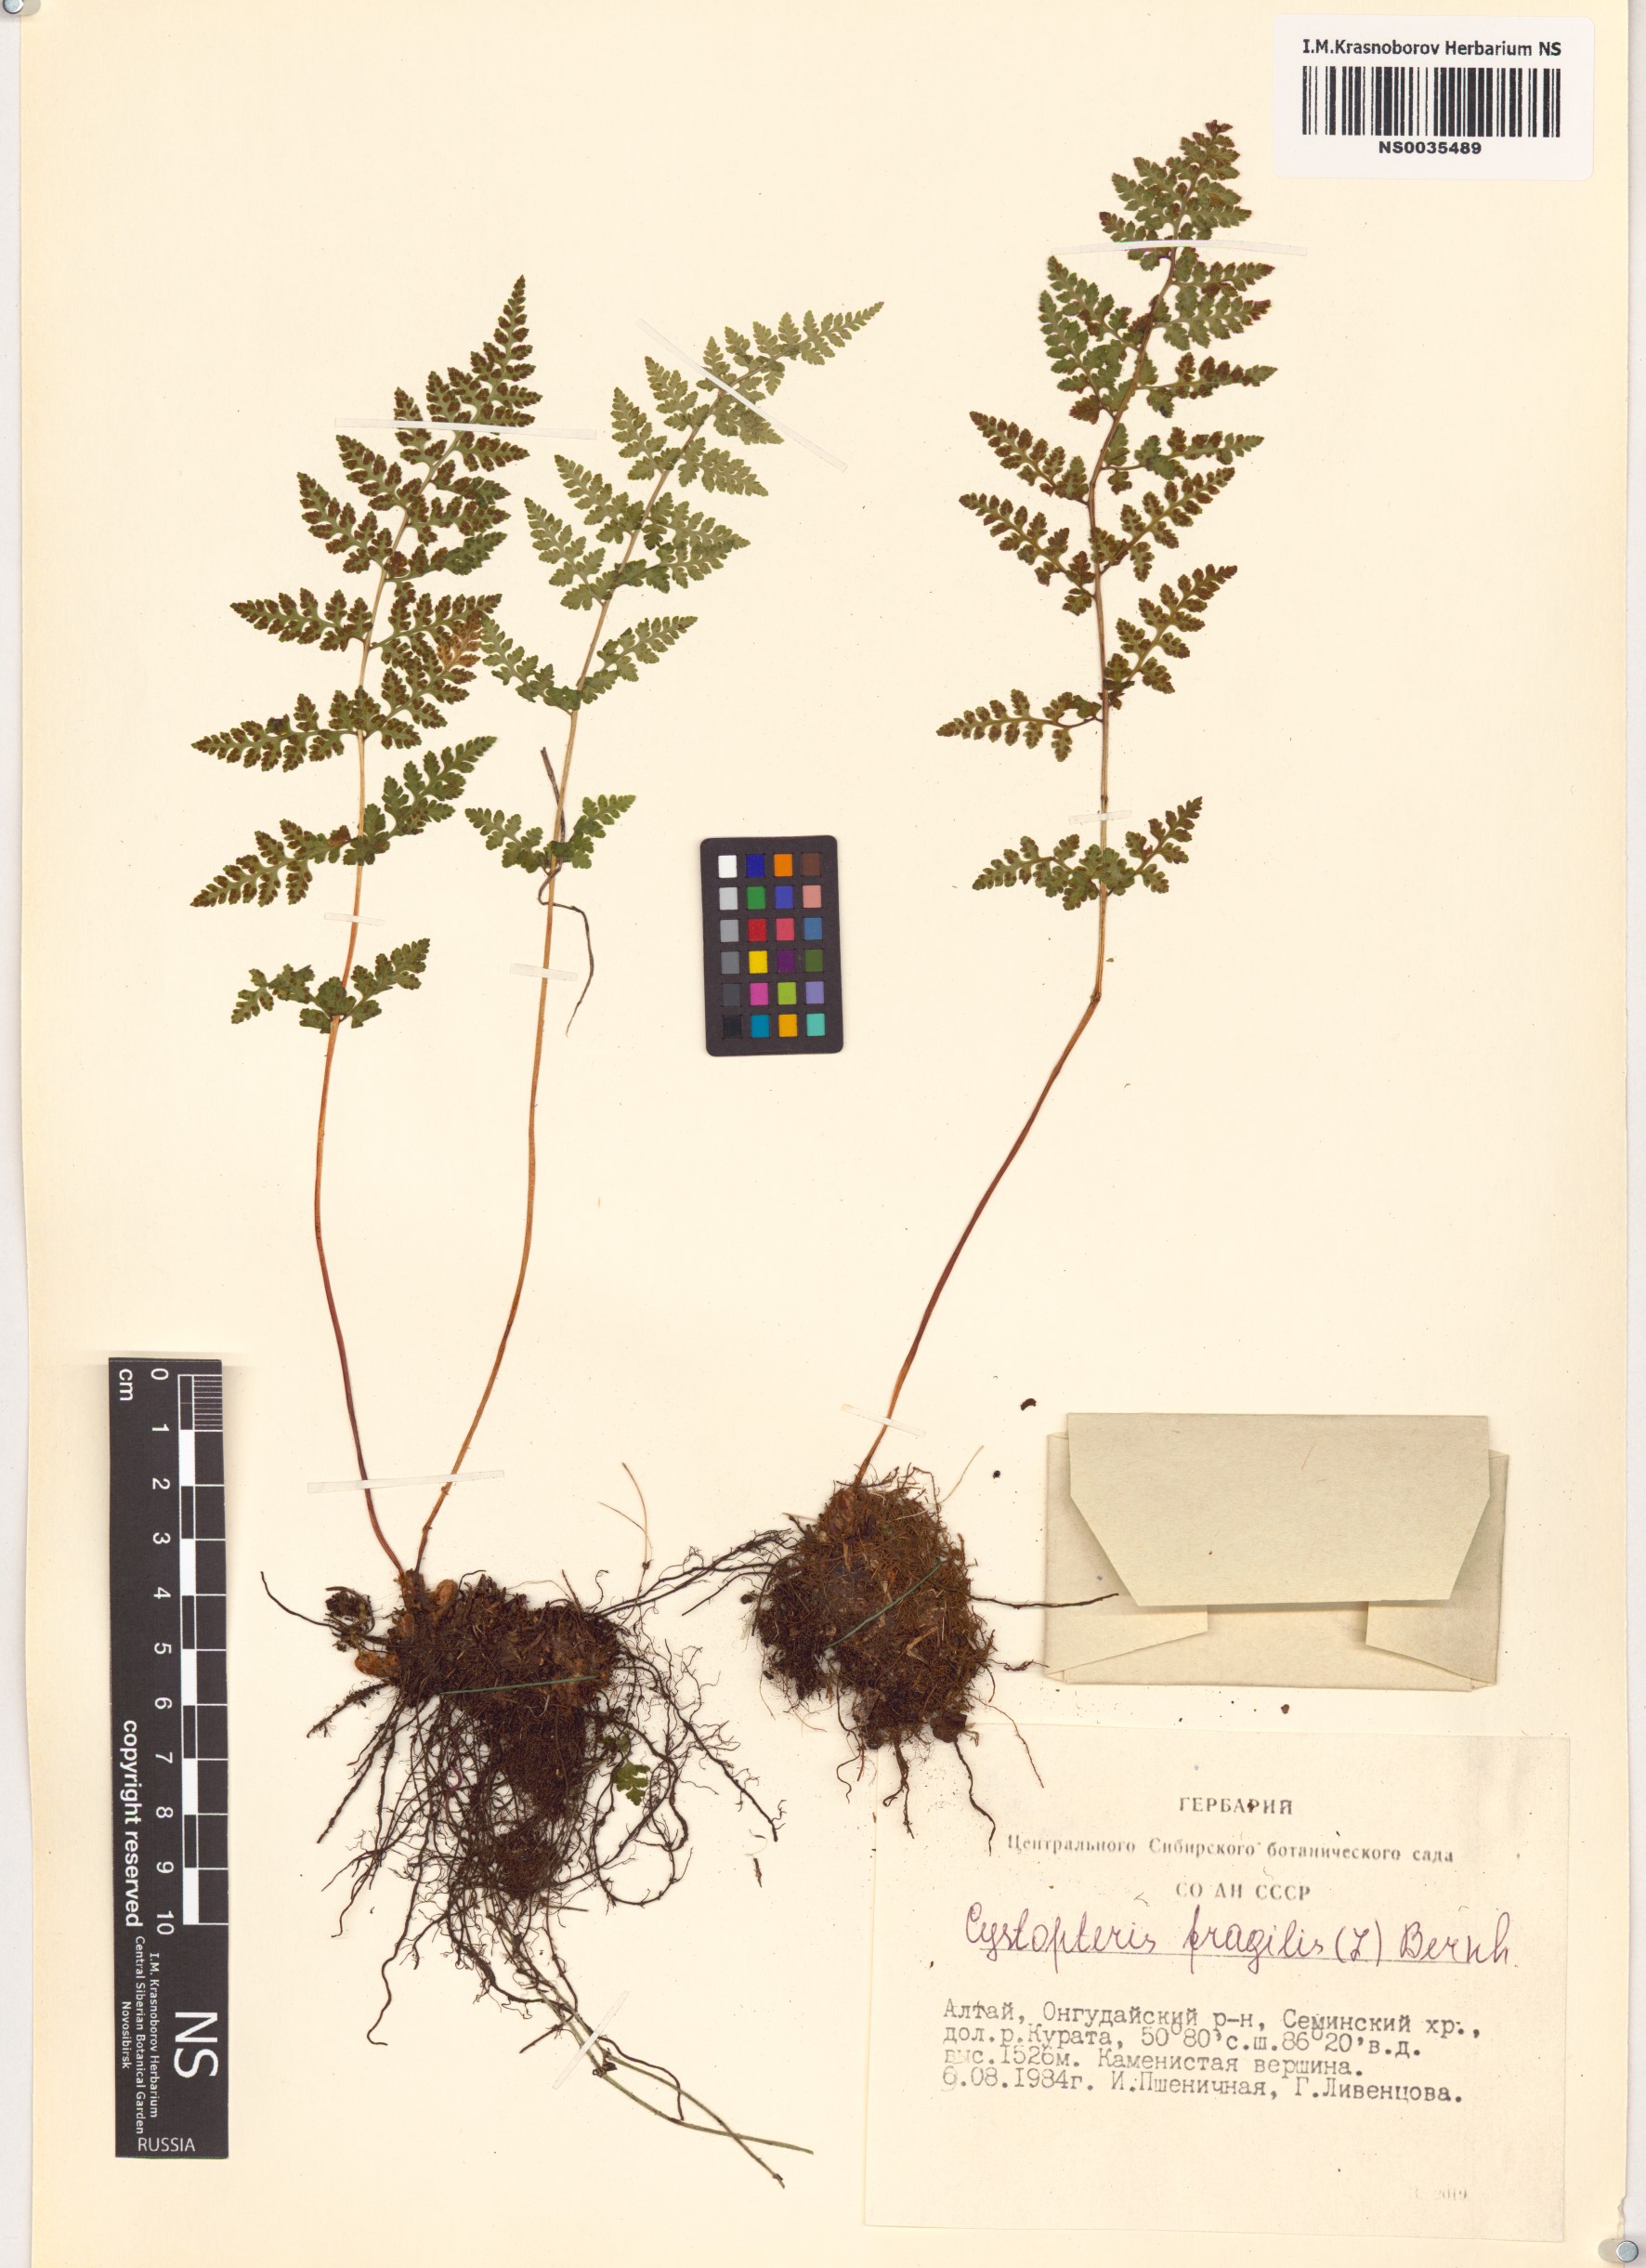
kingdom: Plantae
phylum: Tracheophyta
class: Polypodiopsida
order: Polypodiales
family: Cystopteridaceae
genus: Cystopteris
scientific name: Cystopteris fragilis
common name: Brittle bladder fern
